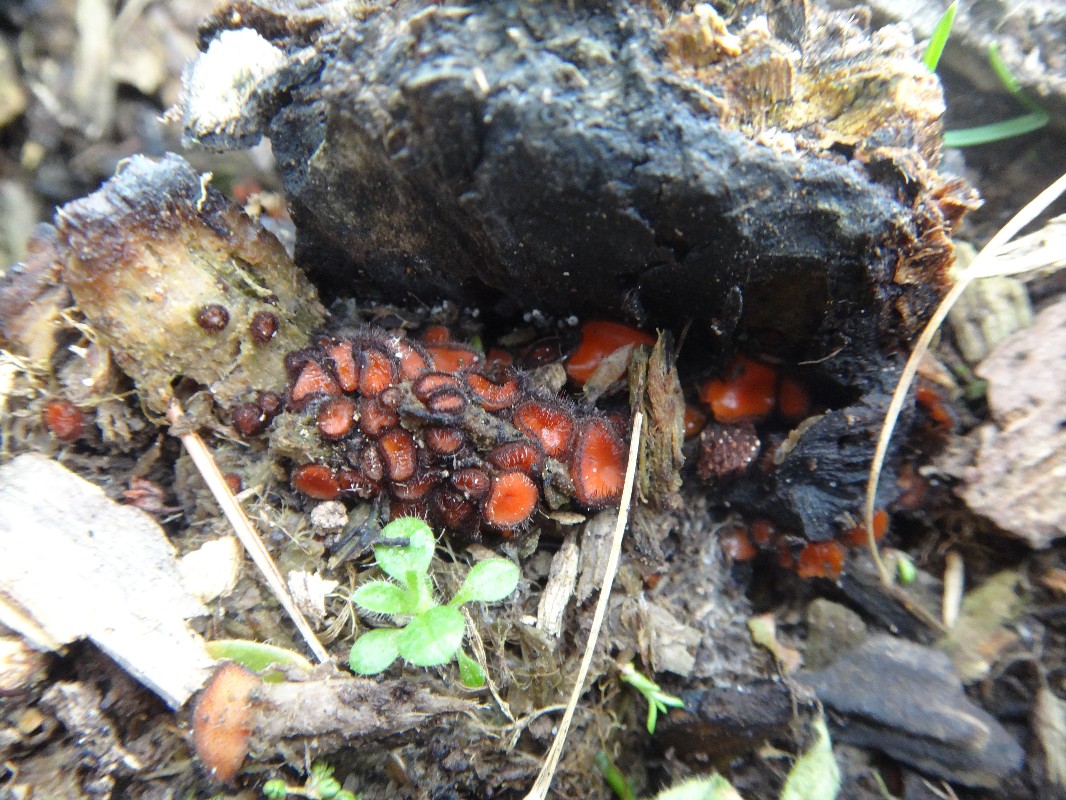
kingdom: Fungi
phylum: Ascomycota
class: Pezizomycetes
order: Pezizales
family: Pyronemataceae
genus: Scutellinia
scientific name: Scutellinia scutellata
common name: frynset skjoldbæger
